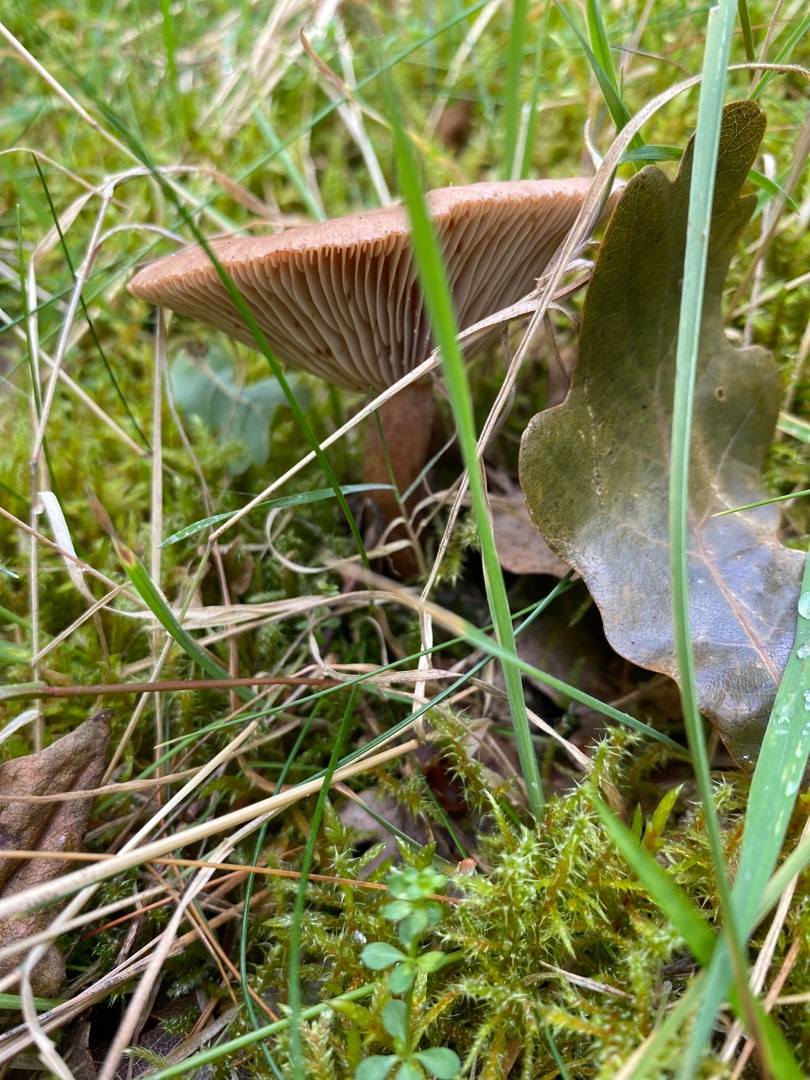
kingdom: Fungi
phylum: Basidiomycota
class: Agaricomycetes
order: Russulales
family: Russulaceae
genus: Lactarius
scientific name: Lactarius quietus
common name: Ege-mælkehat
